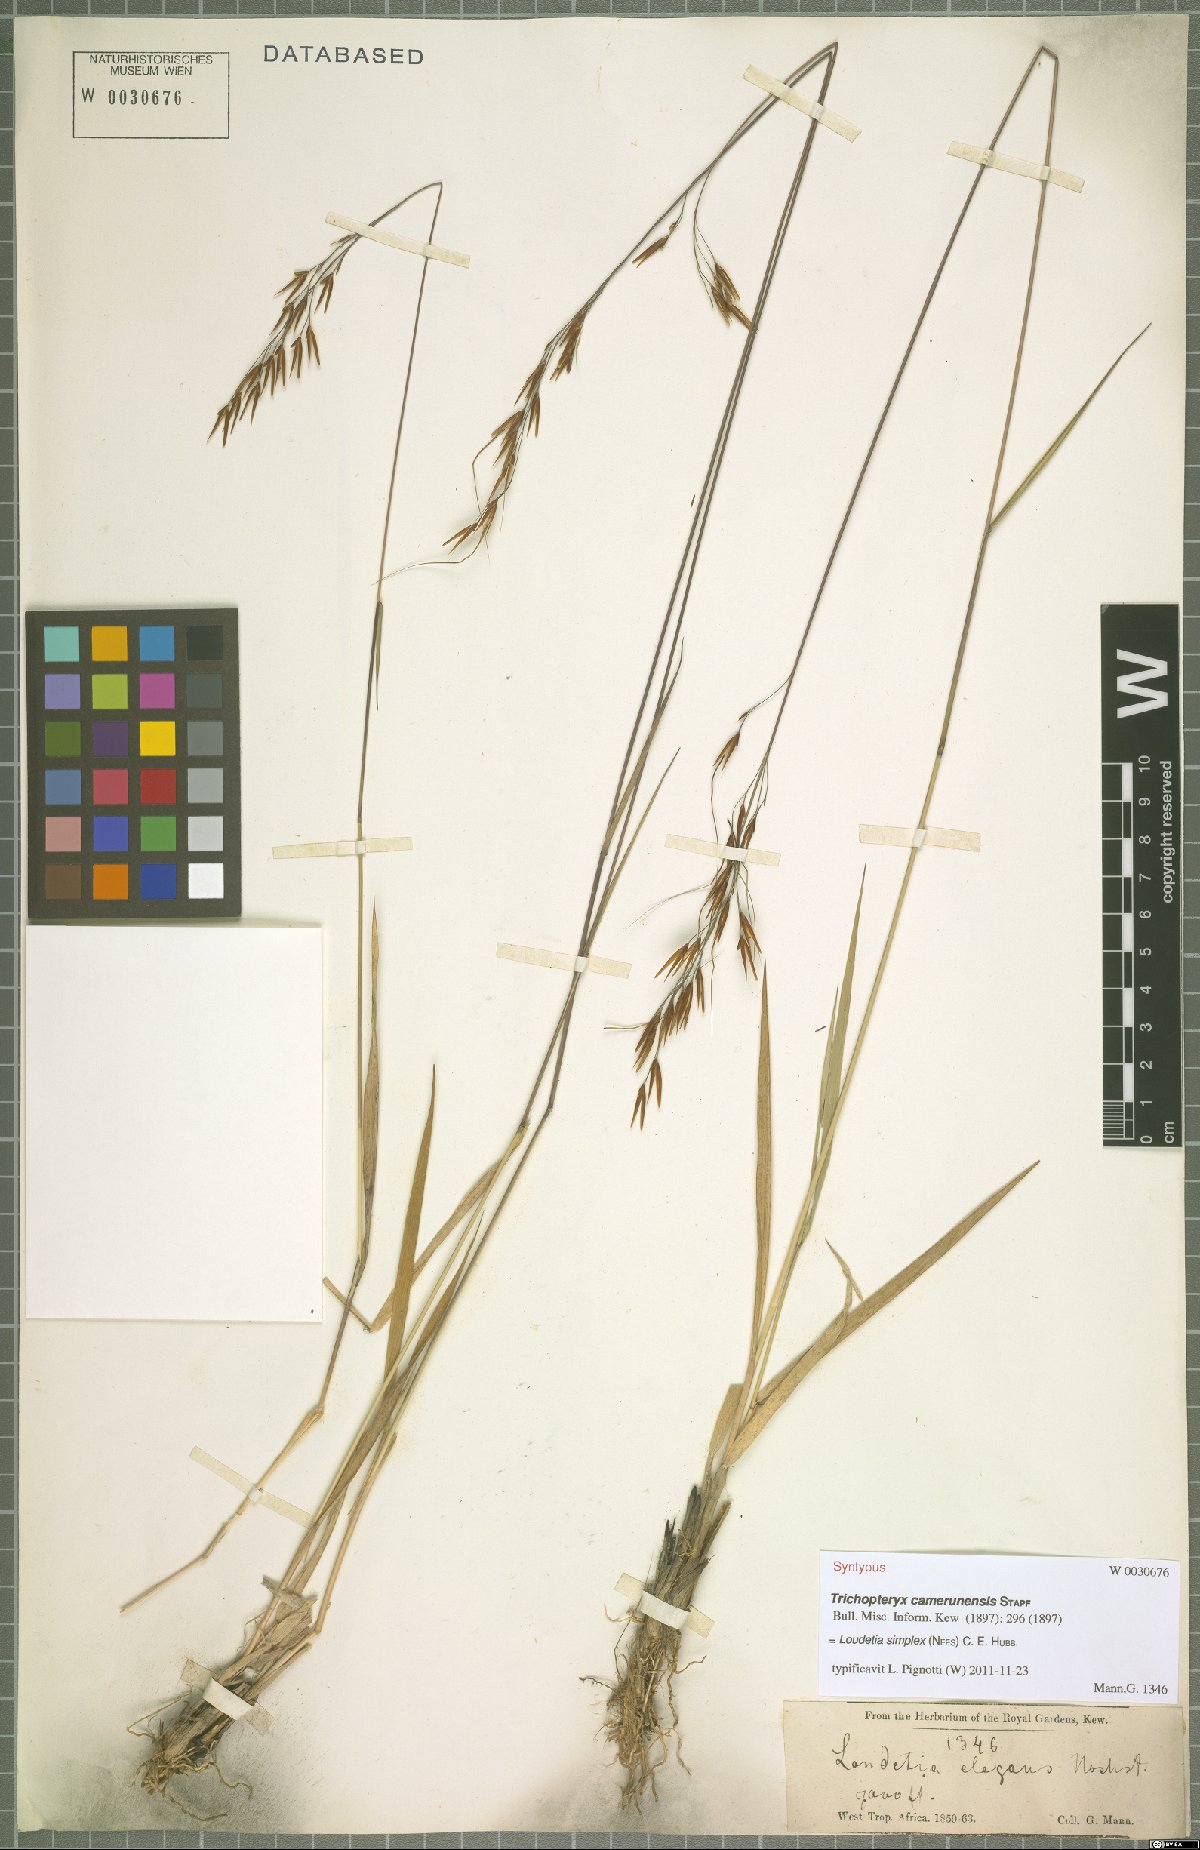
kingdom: Plantae
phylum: Tracheophyta
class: Liliopsida
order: Poales
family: Poaceae
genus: Loudetia
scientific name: Loudetia simplex
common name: Common russet grass
